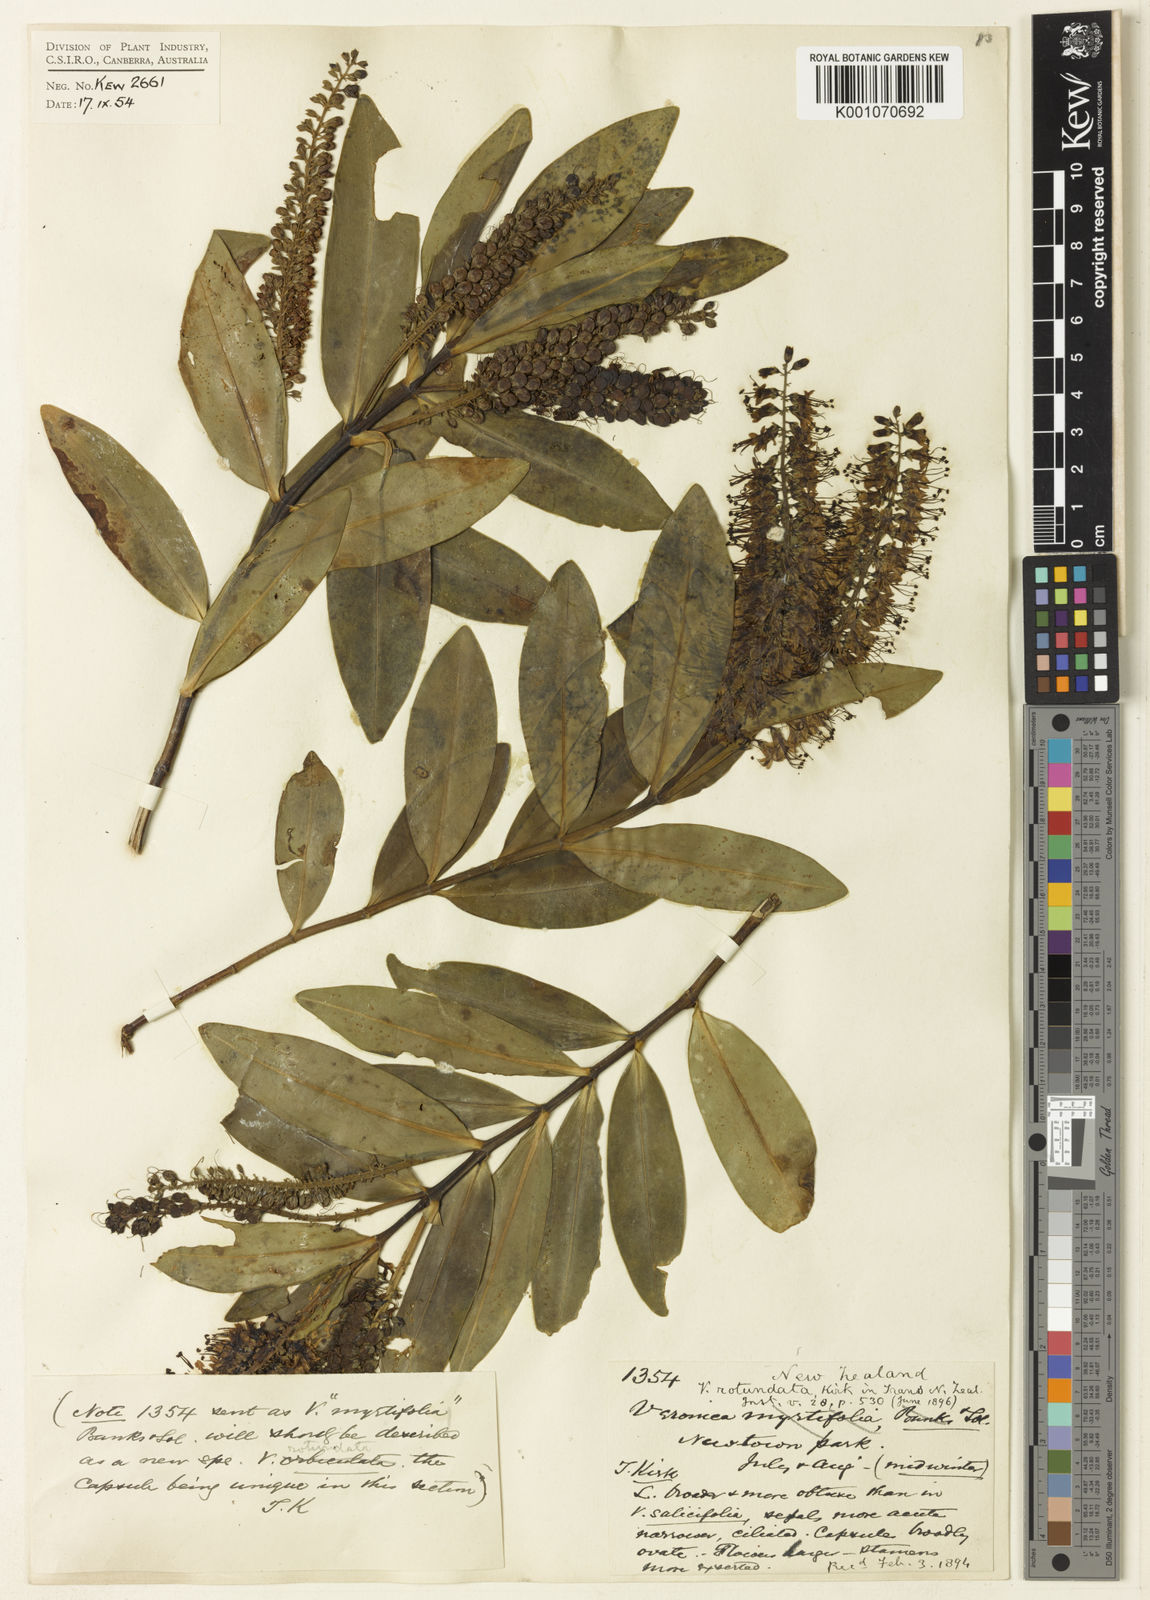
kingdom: Plantae
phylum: Tracheophyta
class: Magnoliopsida
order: Lamiales
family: Plantaginaceae
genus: Veronica
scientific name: Veronica rotundata
